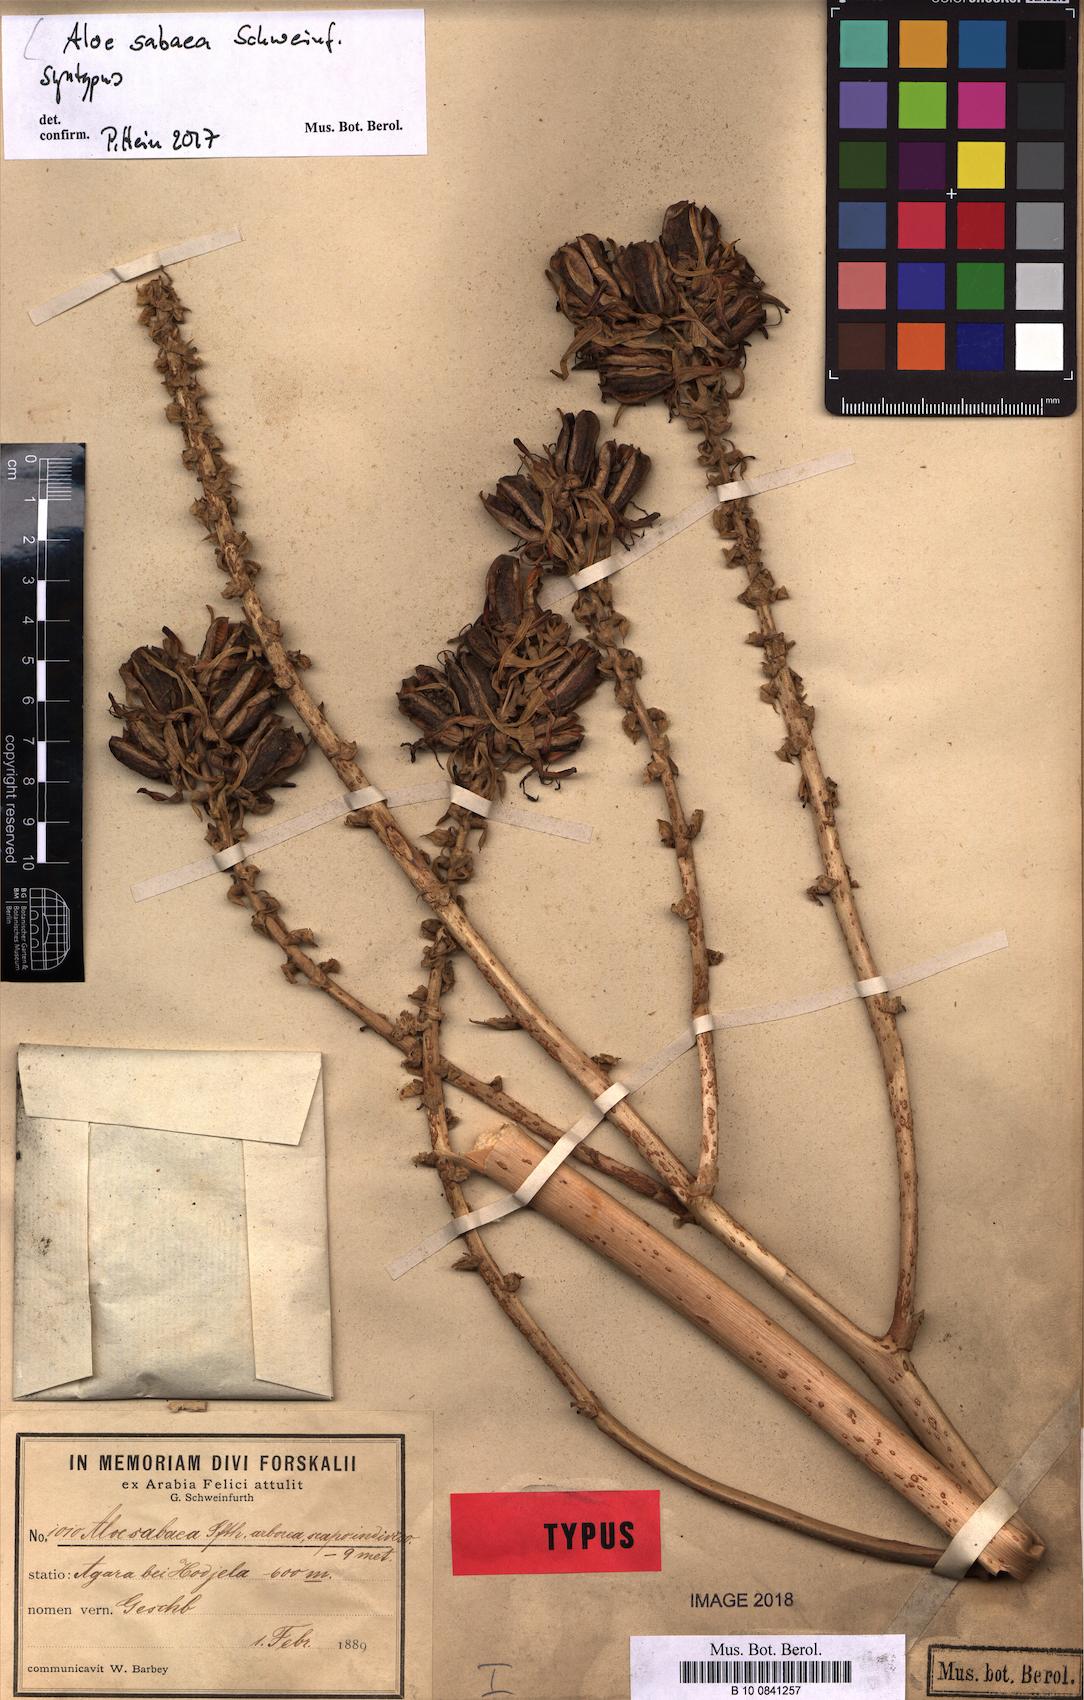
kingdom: Plantae
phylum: Tracheophyta
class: Liliopsida
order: Asparagales
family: Asphodelaceae
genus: Aloidendron
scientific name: Aloidendron sabaeum
